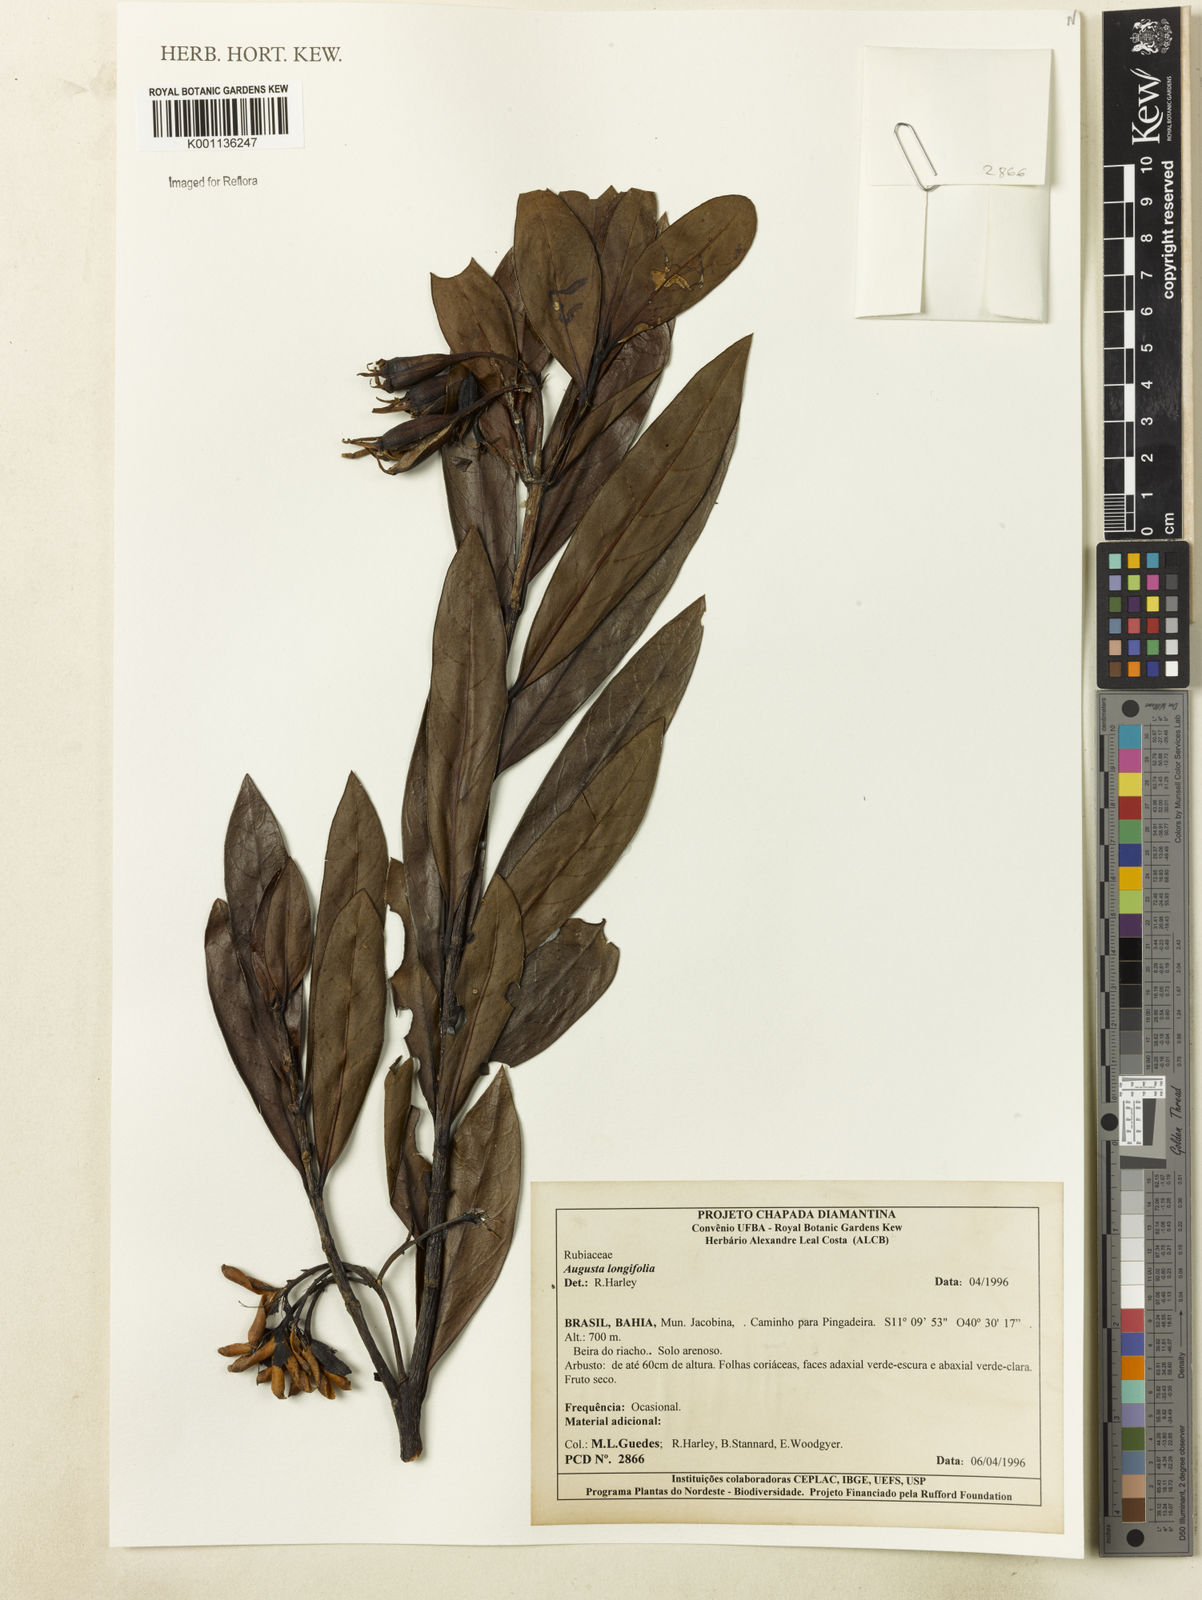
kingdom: Plantae
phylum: Tracheophyta
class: Magnoliopsida
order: Gentianales
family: Rubiaceae
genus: Augusta
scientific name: Augusta longifolia
